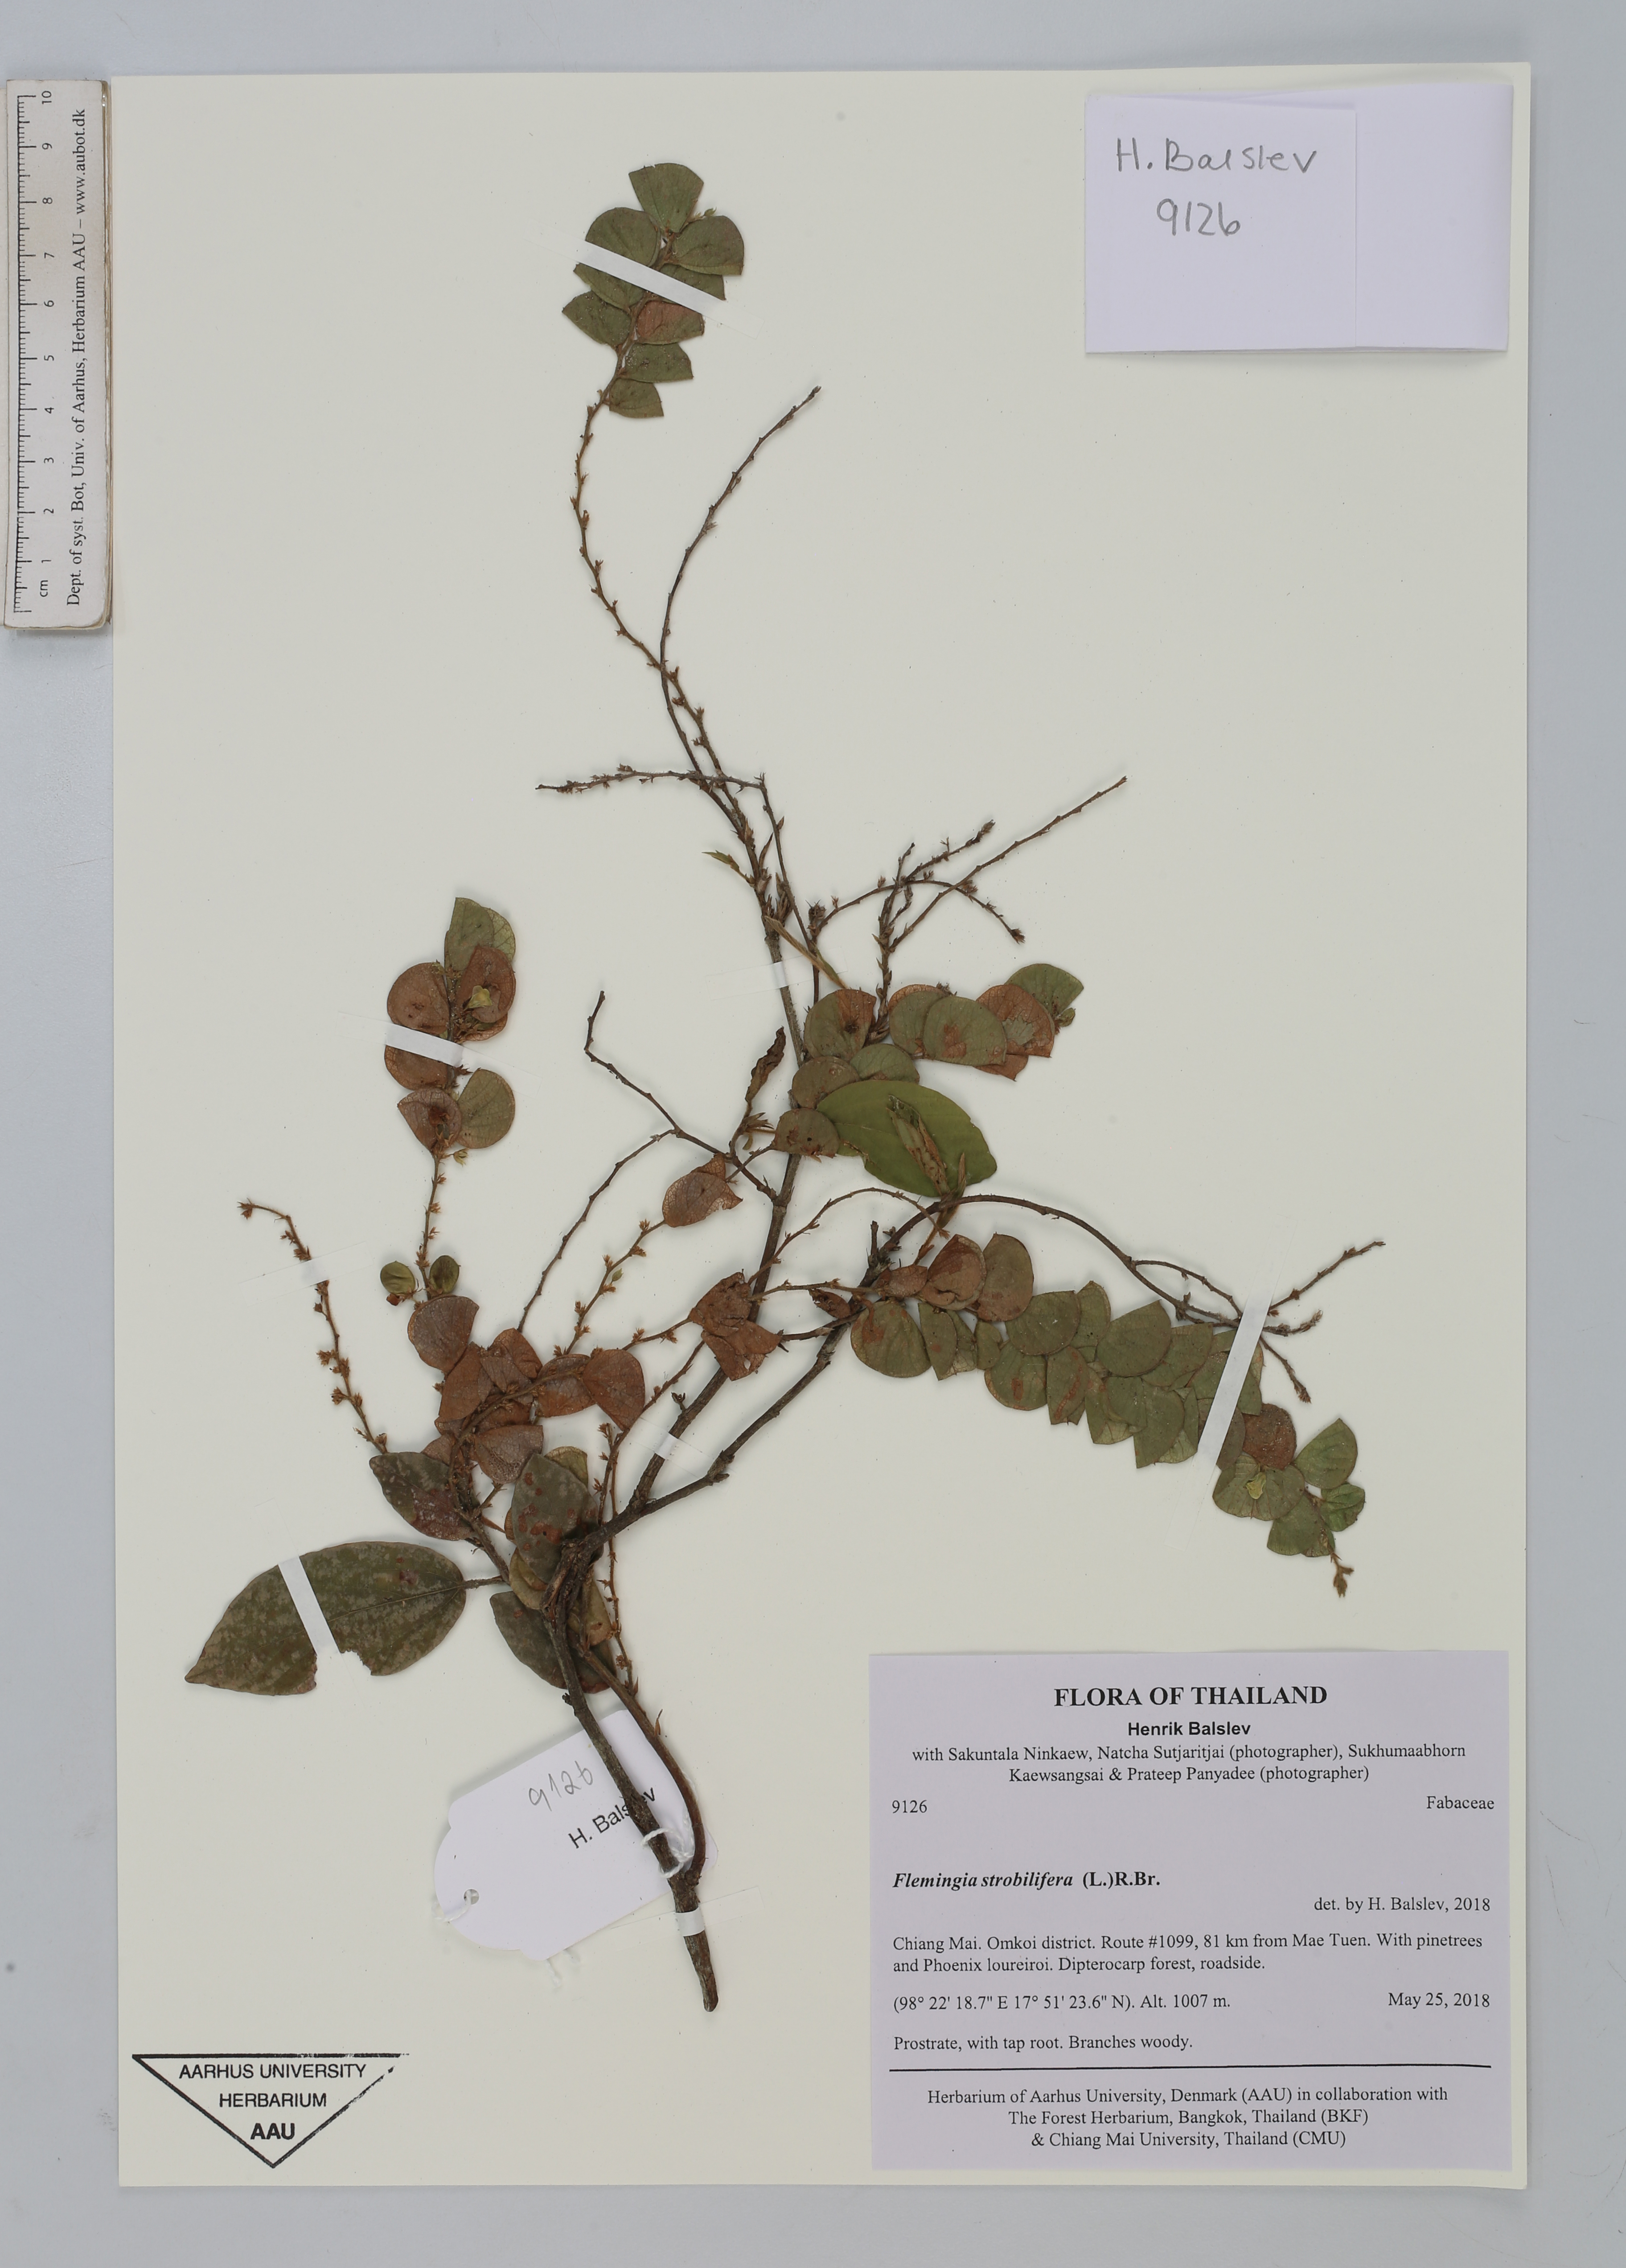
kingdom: Plantae
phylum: Tracheophyta
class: Magnoliopsida
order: Fabales
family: Fabaceae
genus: Flemingia
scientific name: Flemingia strobilifera
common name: Wild hops
